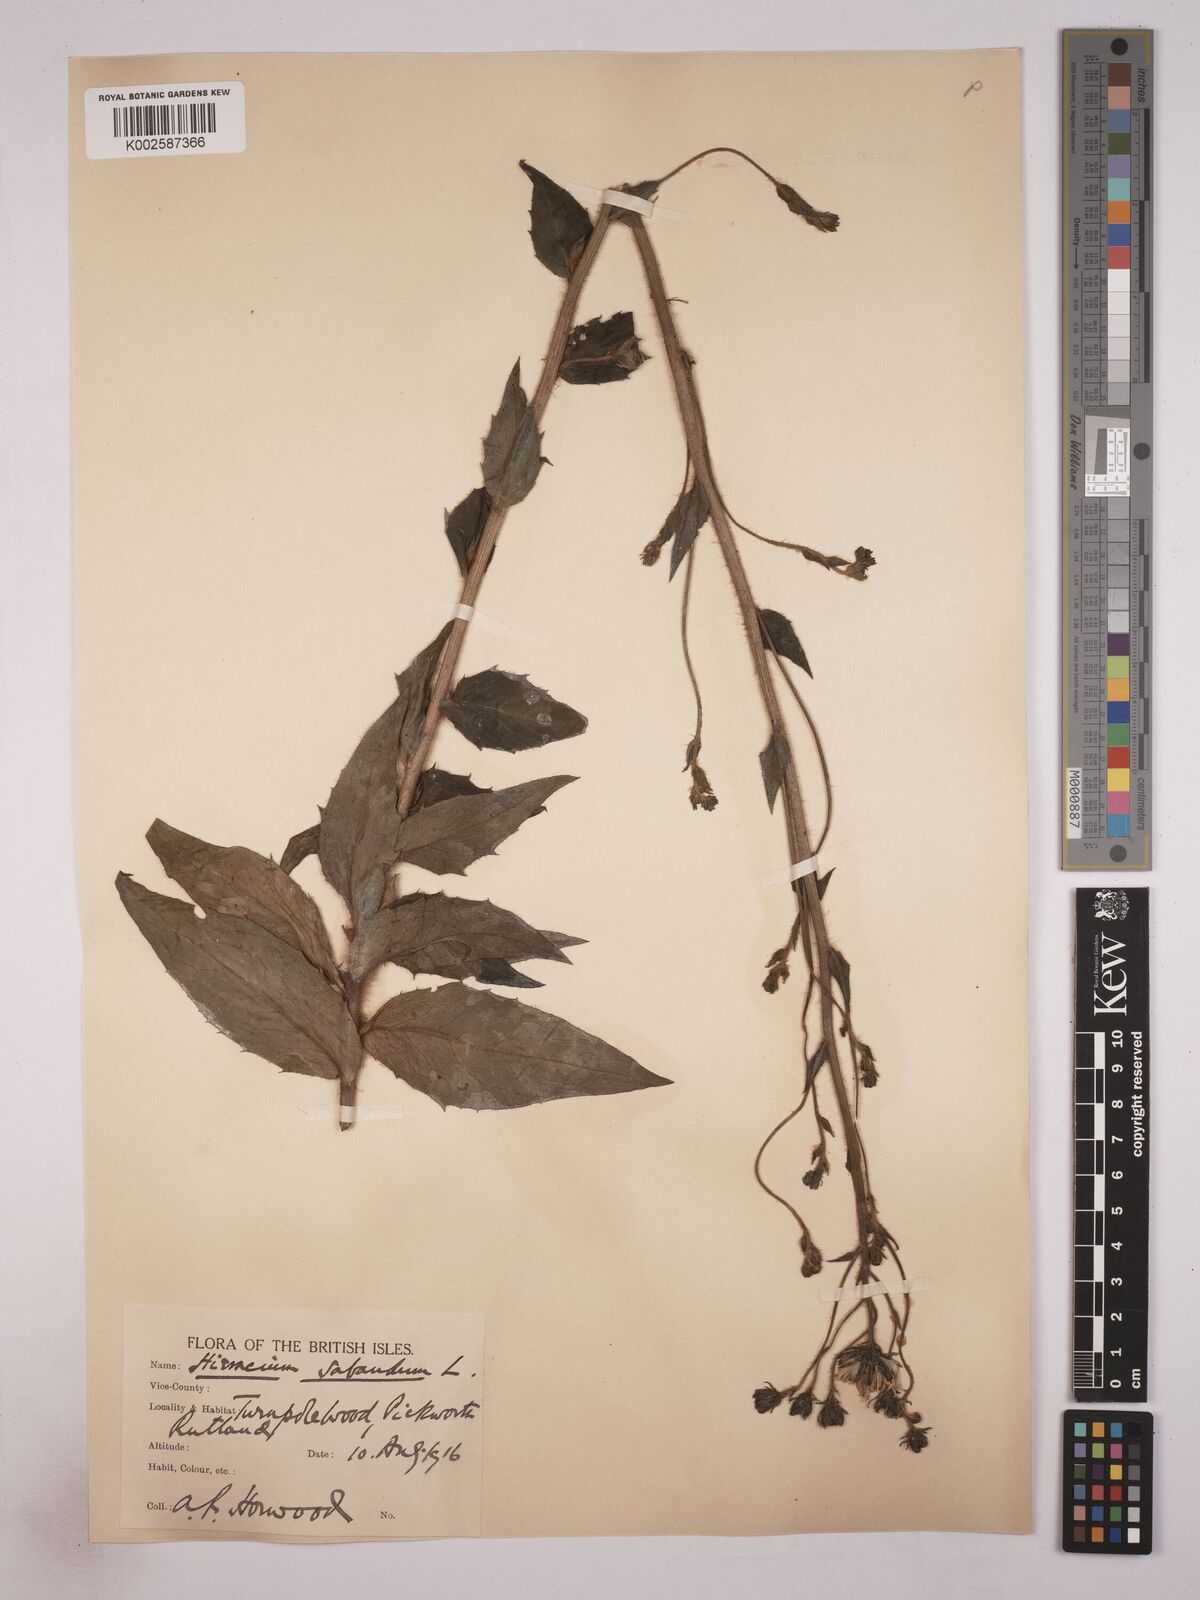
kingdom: Plantae
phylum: Tracheophyta
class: Magnoliopsida
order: Asterales
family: Asteraceae
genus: Hieracium
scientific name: Hieracium
